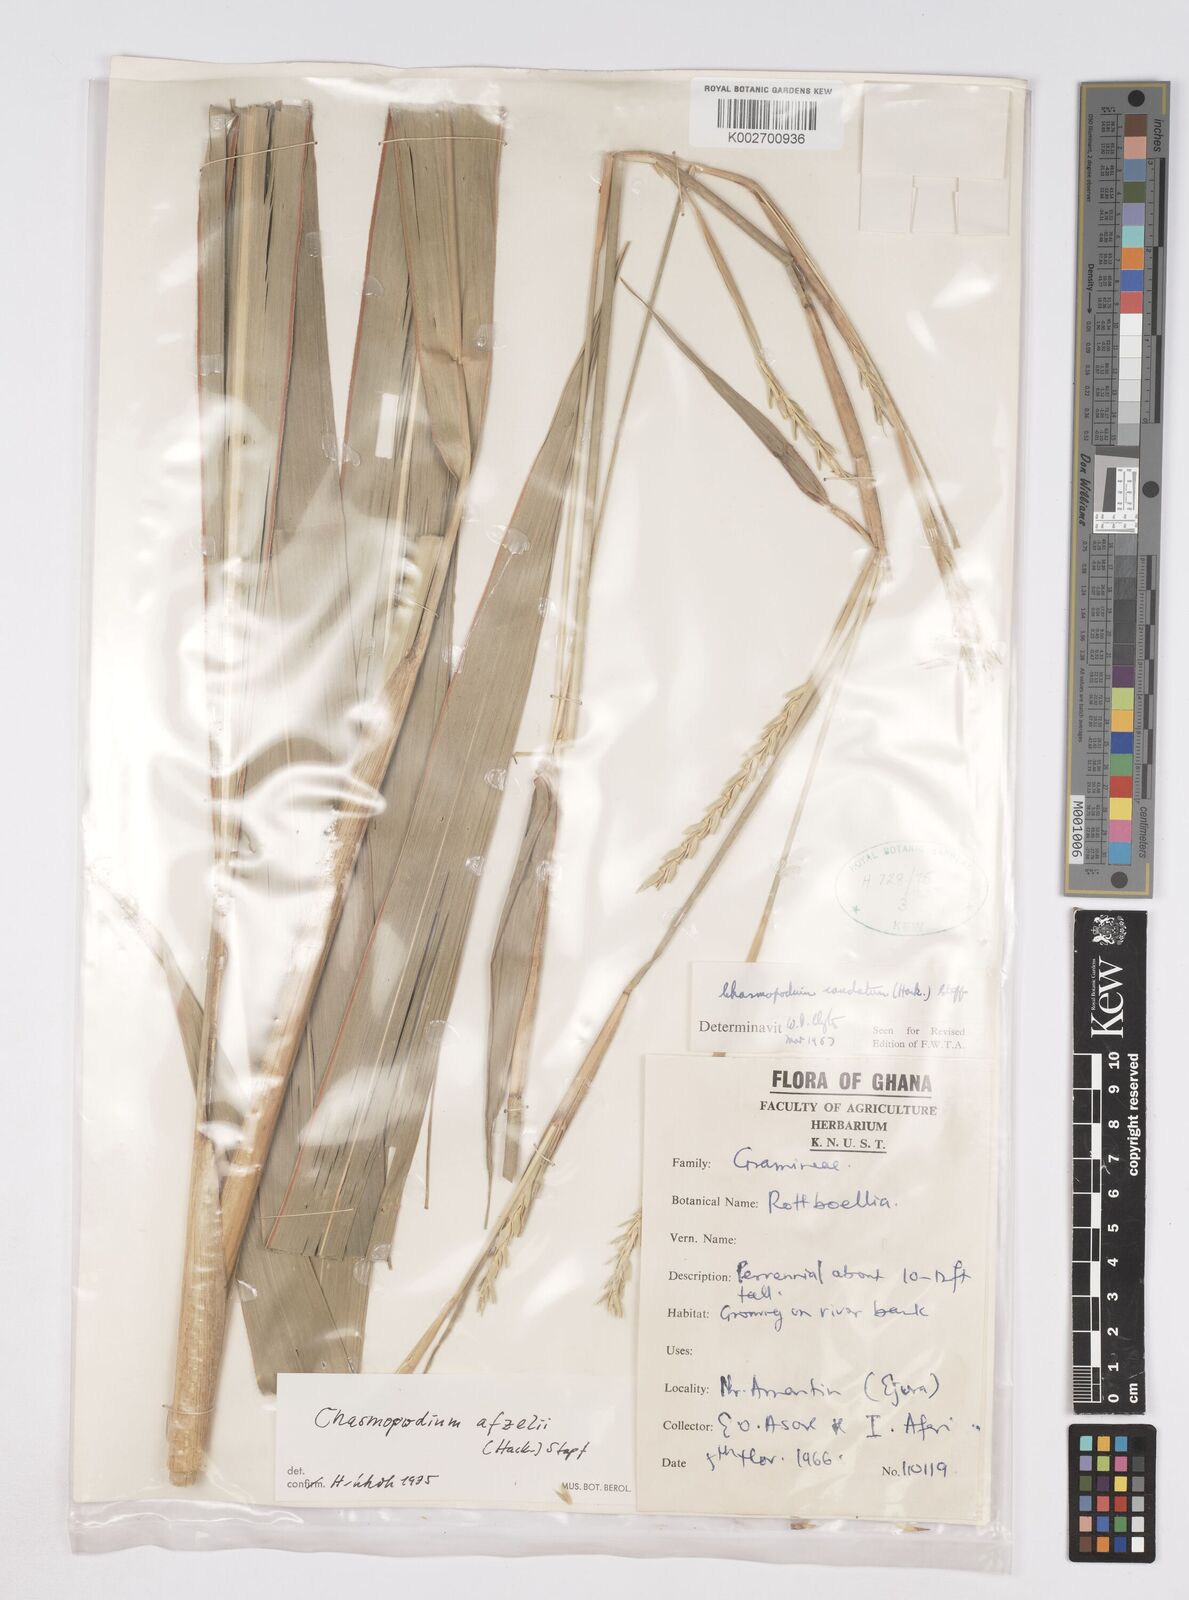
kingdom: Plantae
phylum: Tracheophyta
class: Liliopsida
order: Poales
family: Poaceae
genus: Chasmopodium
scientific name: Chasmopodium afzelii
